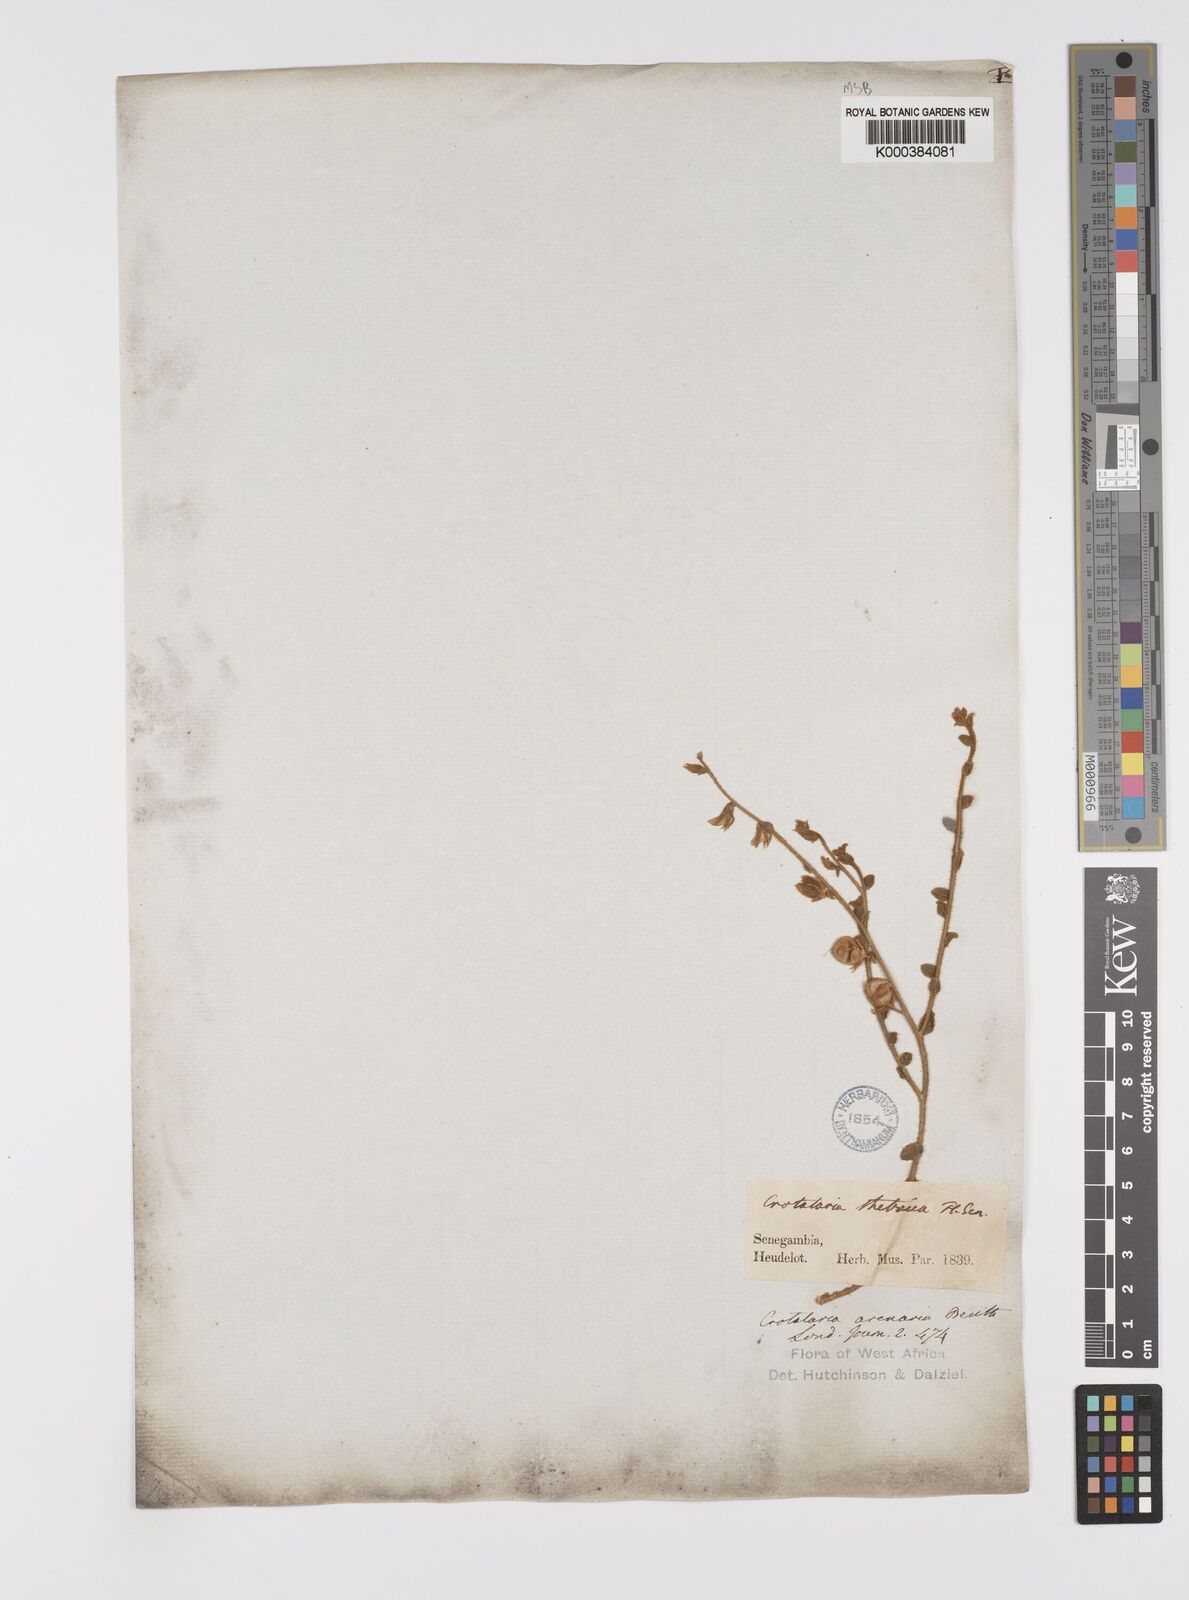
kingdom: Plantae
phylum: Tracheophyta
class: Magnoliopsida
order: Fabales
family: Fabaceae
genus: Crotalaria
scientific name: Crotalaria arenaria
